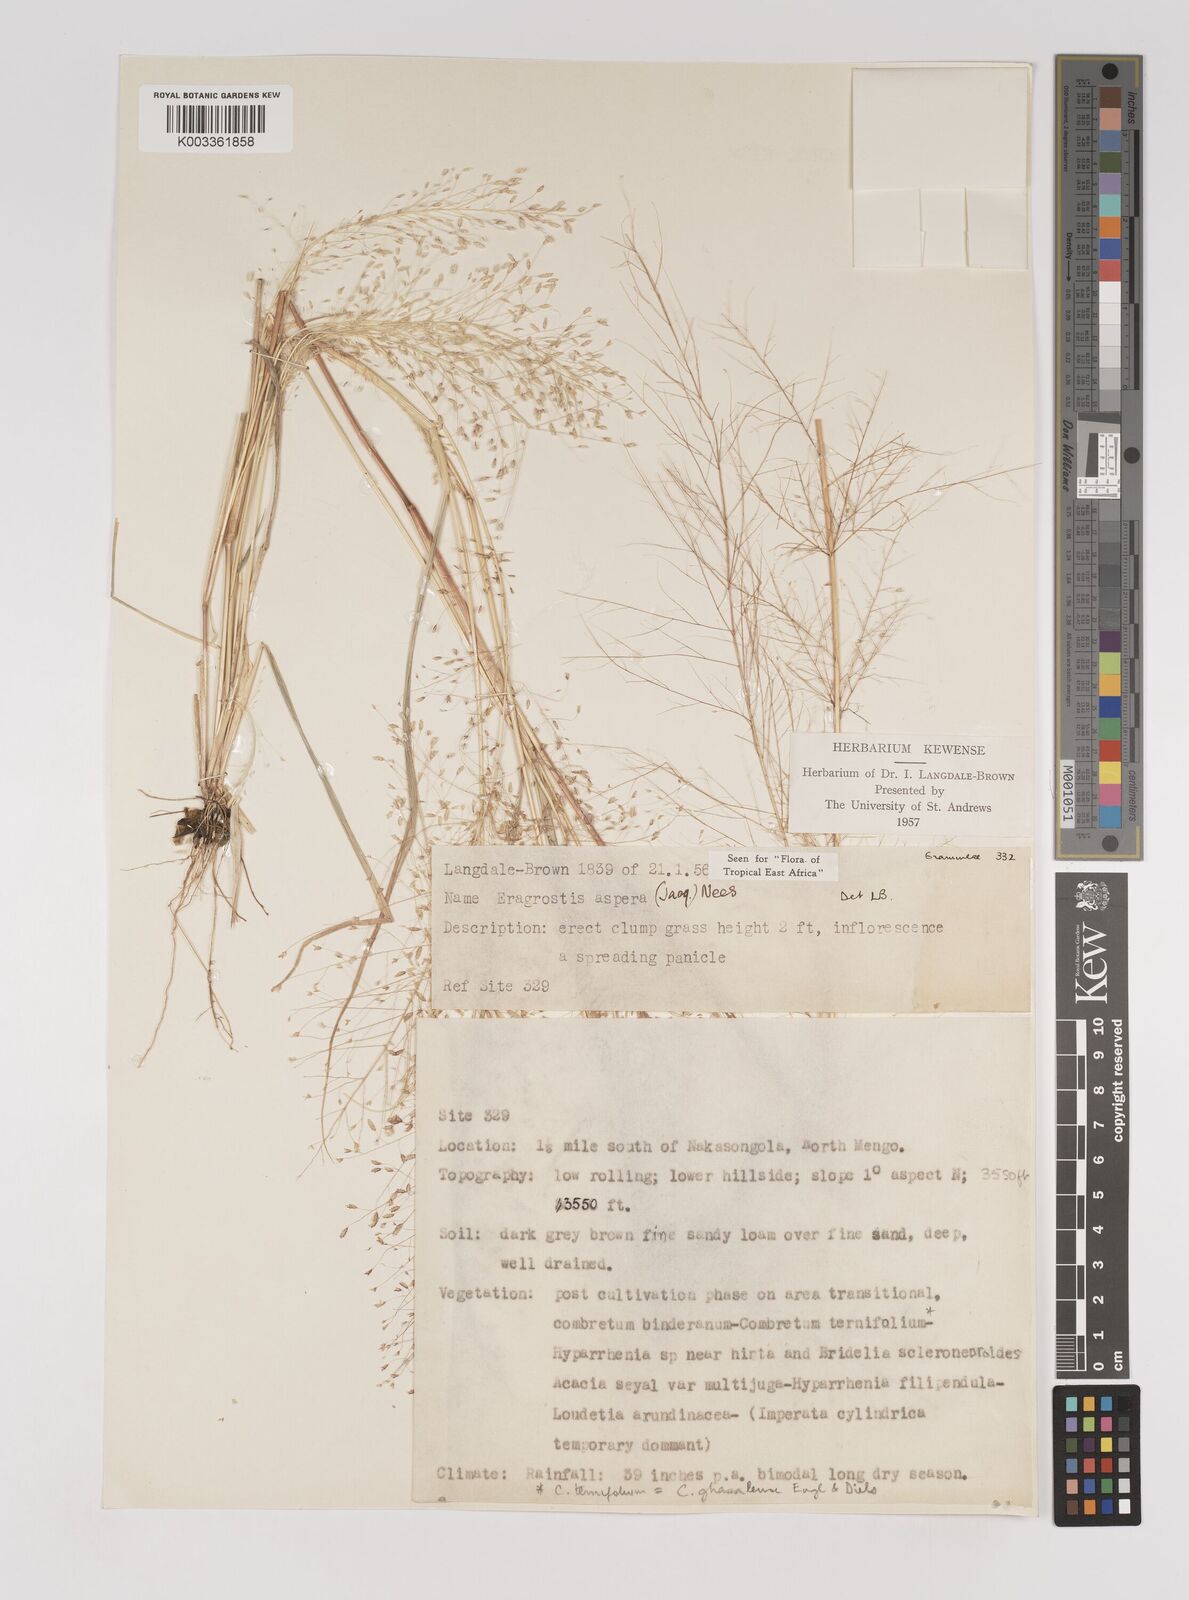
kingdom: Plantae
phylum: Tracheophyta
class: Liliopsida
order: Poales
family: Poaceae
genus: Eragrostis
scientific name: Eragrostis aspera
